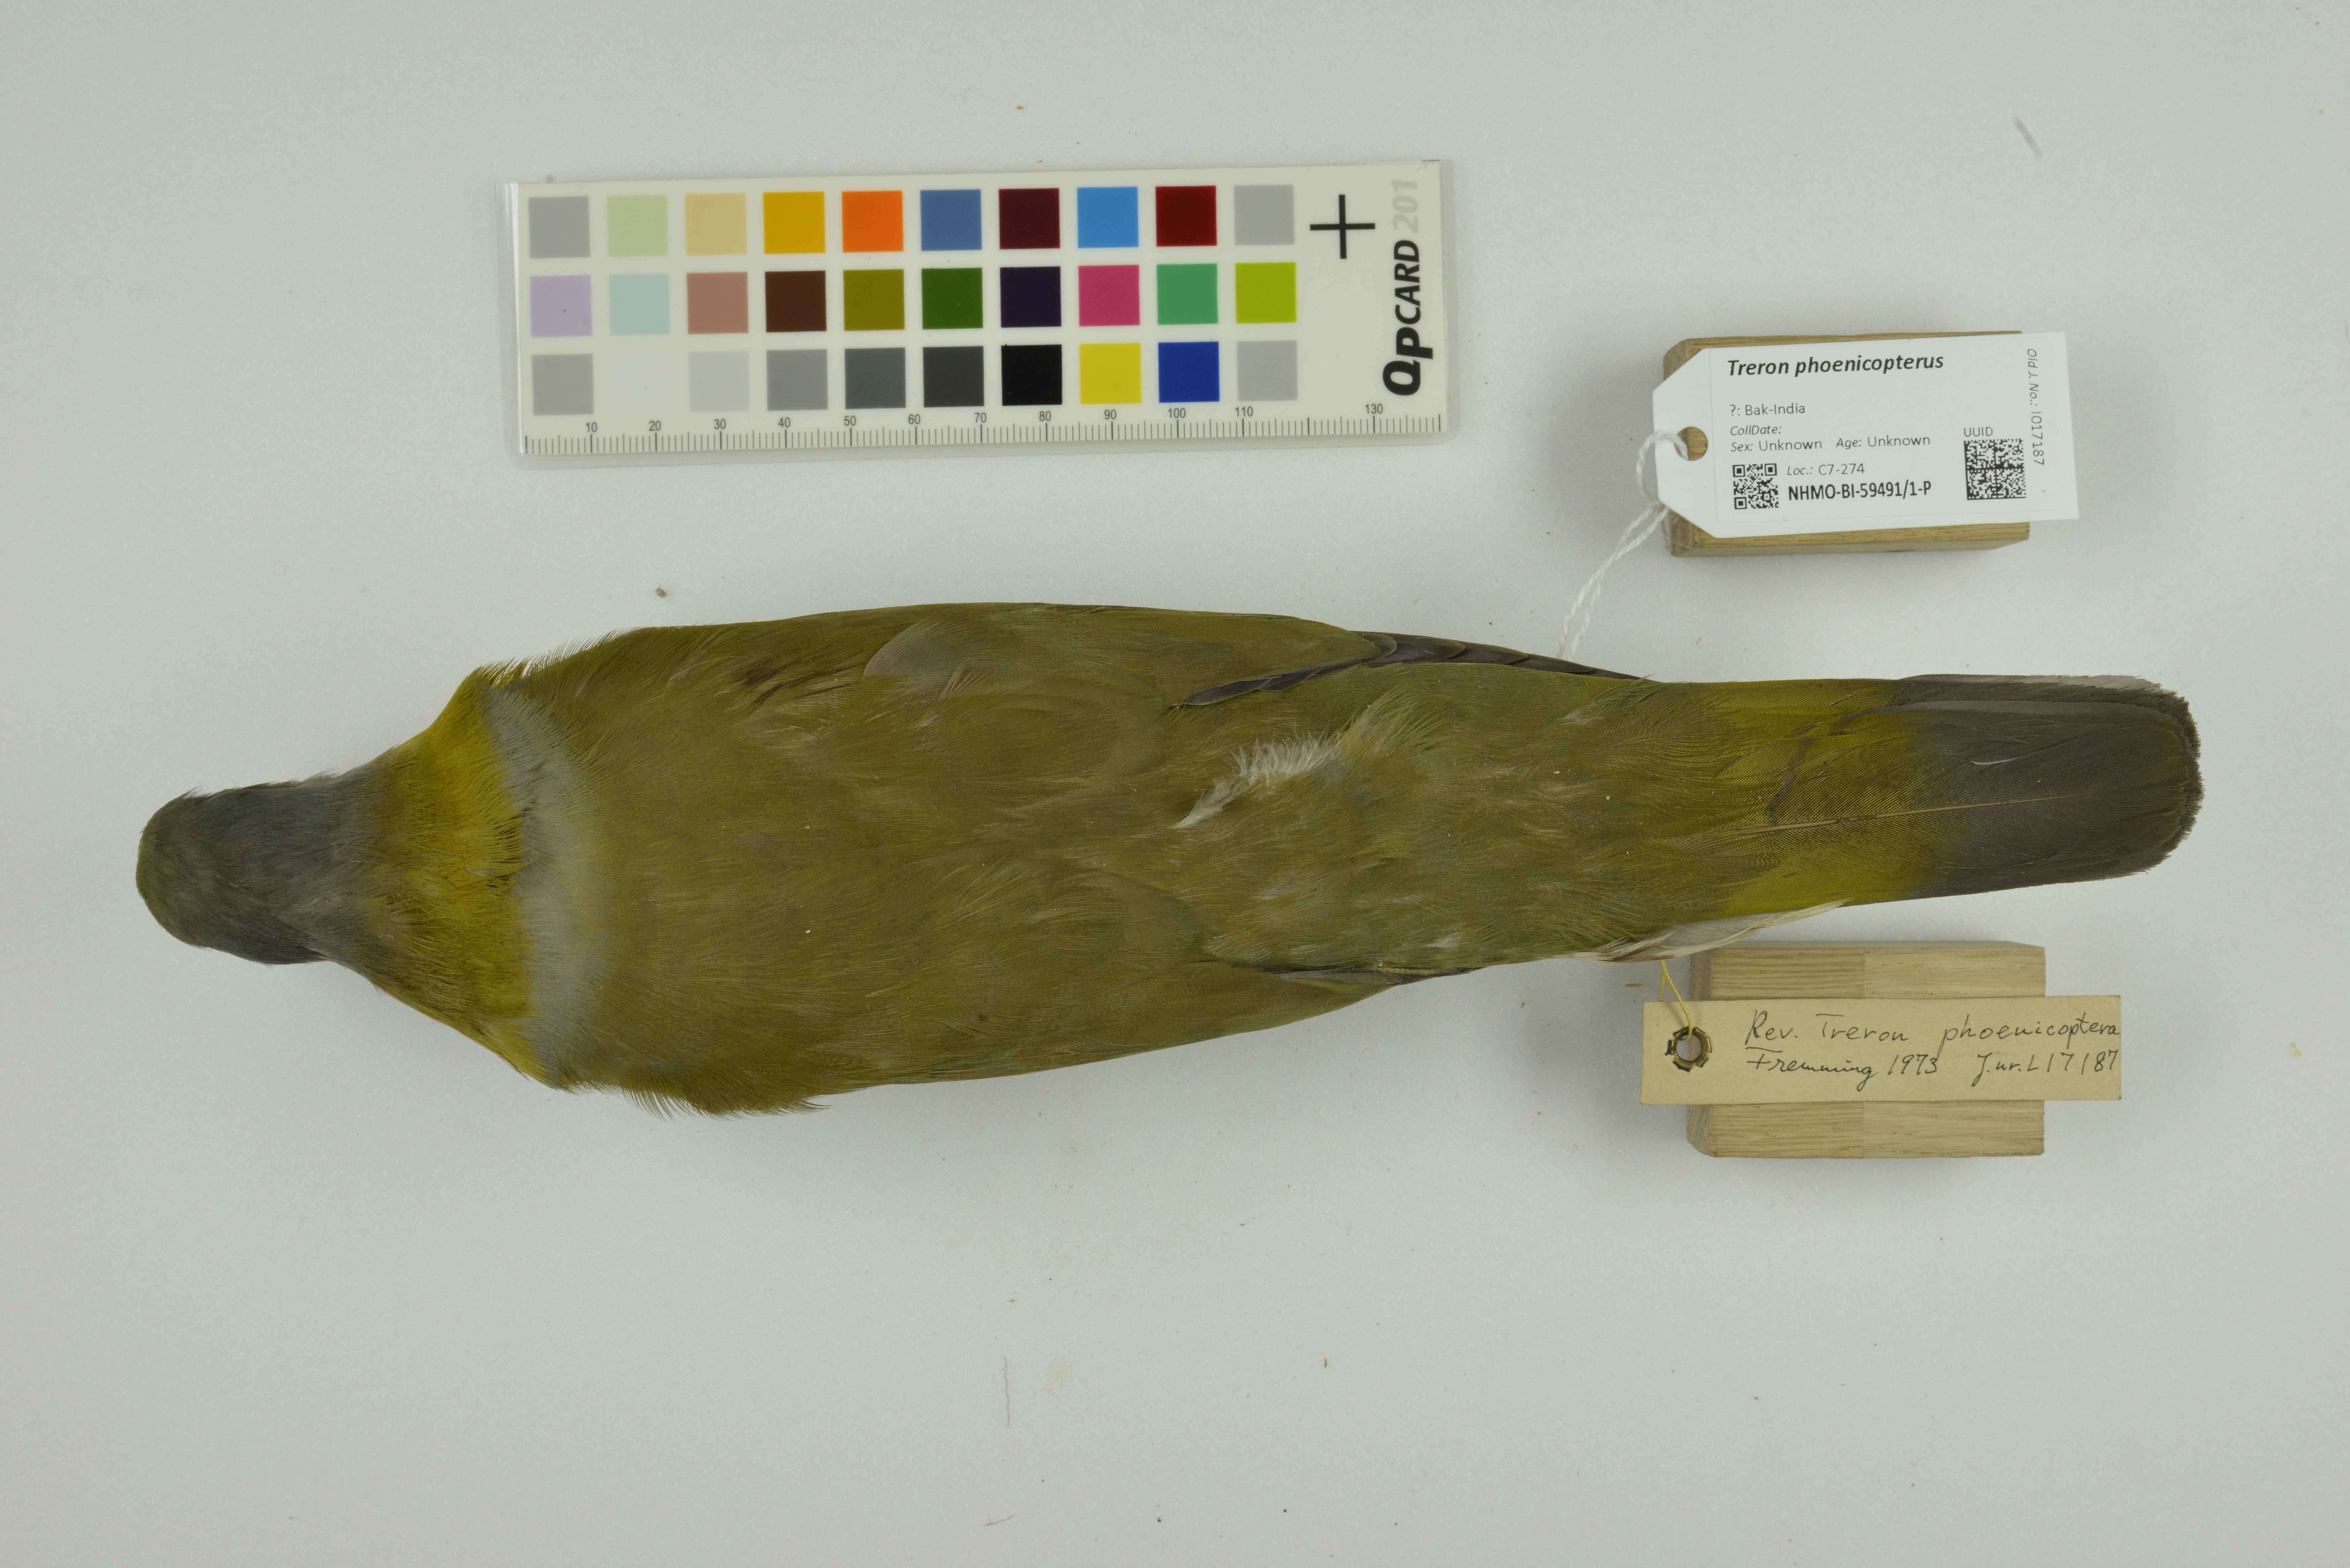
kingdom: Animalia
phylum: Chordata
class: Aves
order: Columbiformes
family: Columbidae
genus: Treron
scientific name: Treron phoenicopterus
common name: Yellow-footed green pigeon
